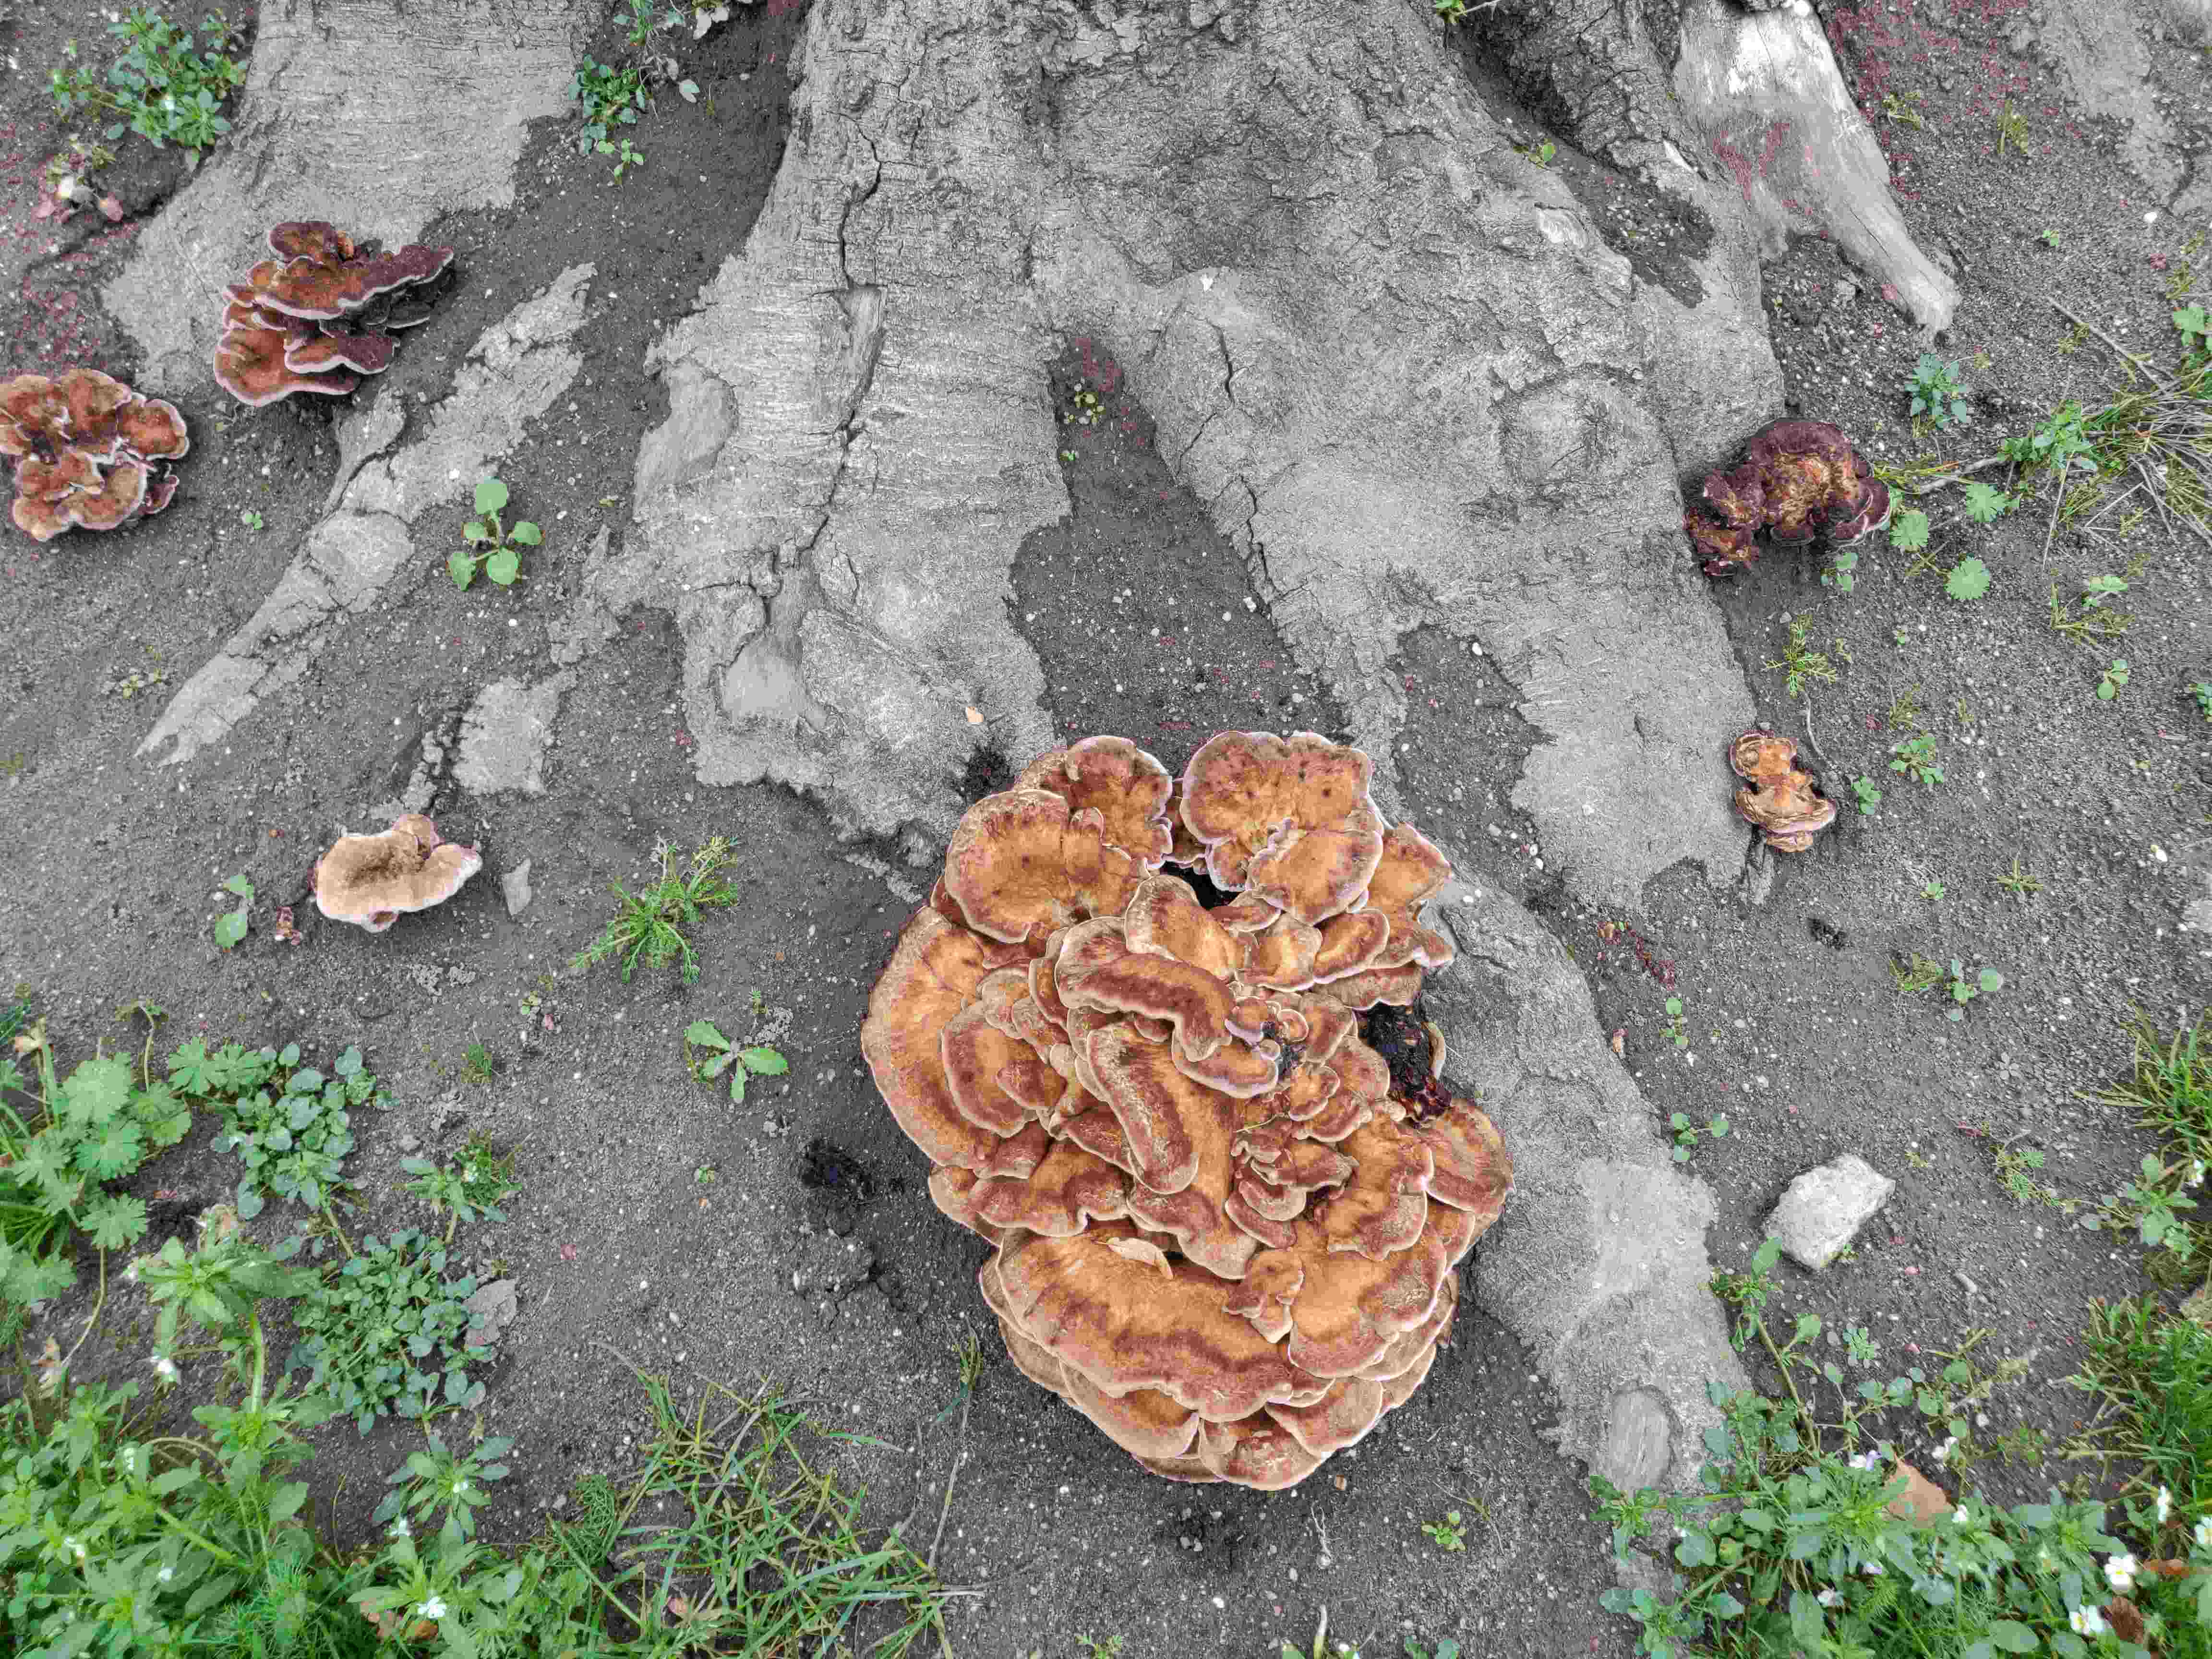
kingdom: Fungi
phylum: Basidiomycota
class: Agaricomycetes
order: Polyporales
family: Meripilaceae
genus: Meripilus
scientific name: Meripilus giganteus
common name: kæmpeporesvamp
